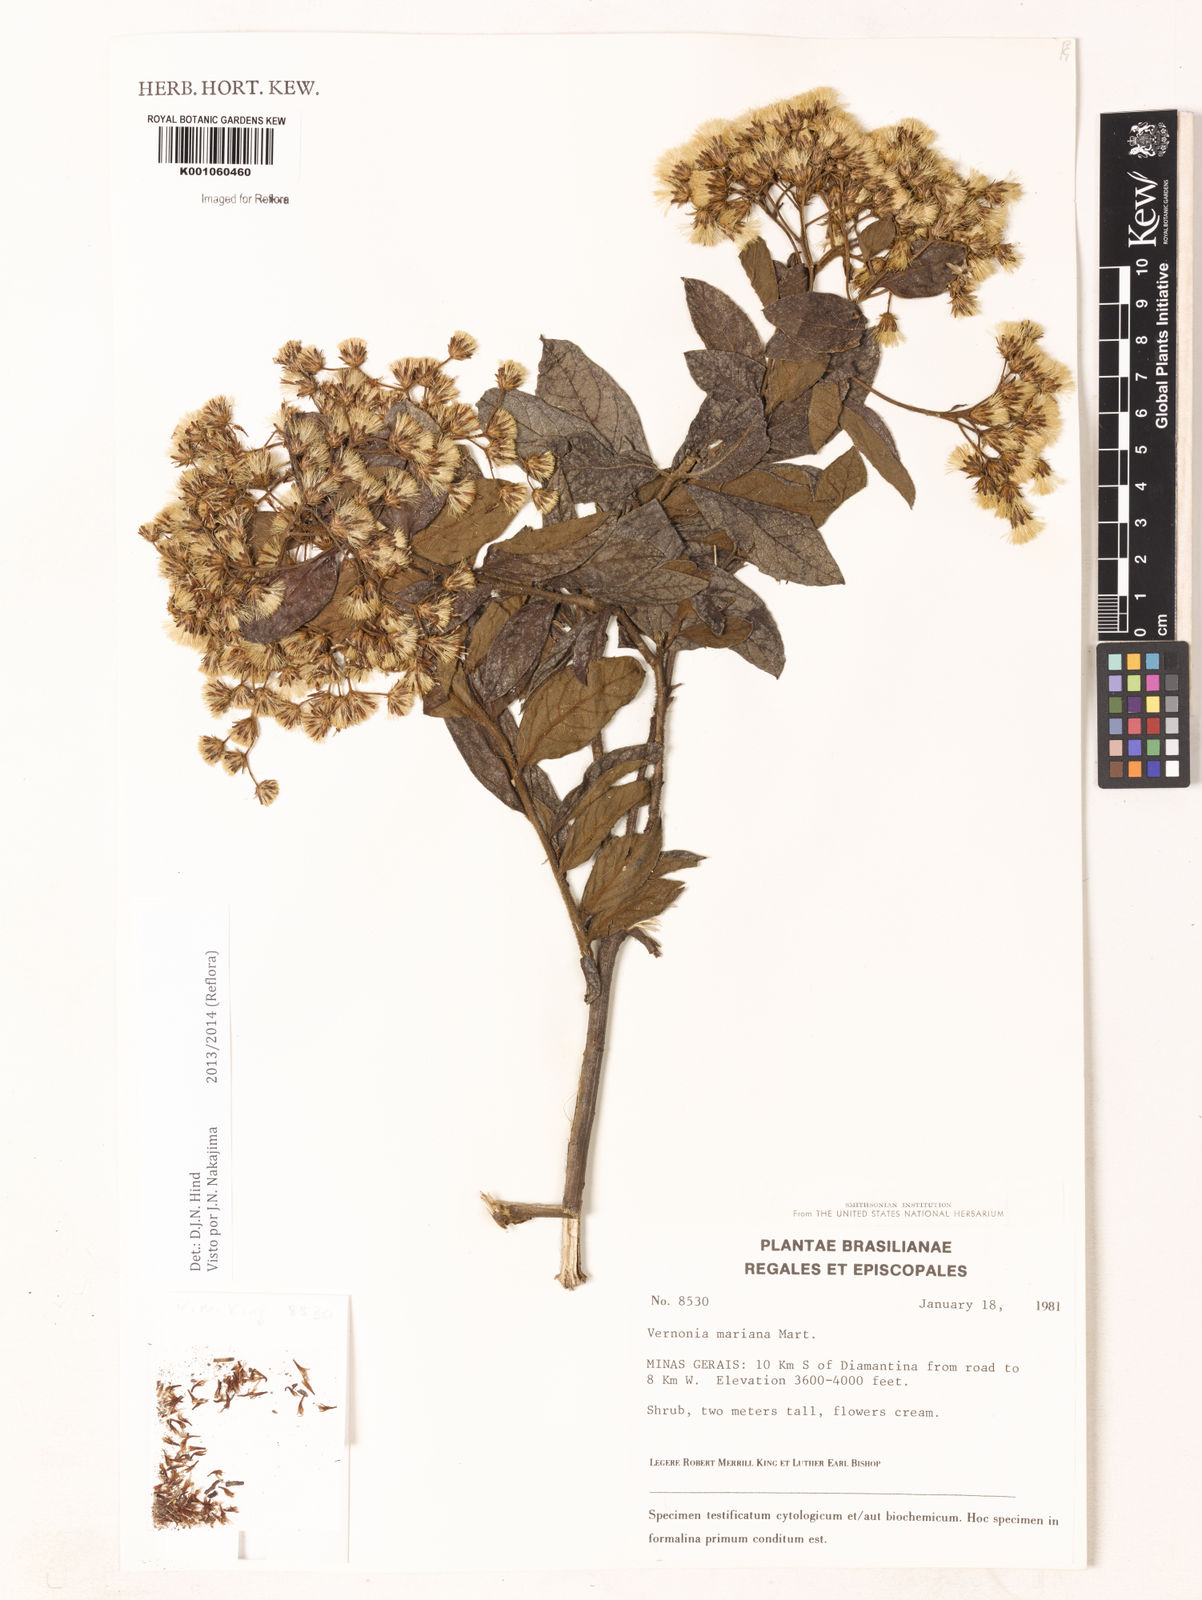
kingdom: Plantae
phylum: Tracheophyta
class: Magnoliopsida
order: Asterales
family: Asteraceae
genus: Vernonanthura
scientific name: Vernonanthura cymosa
